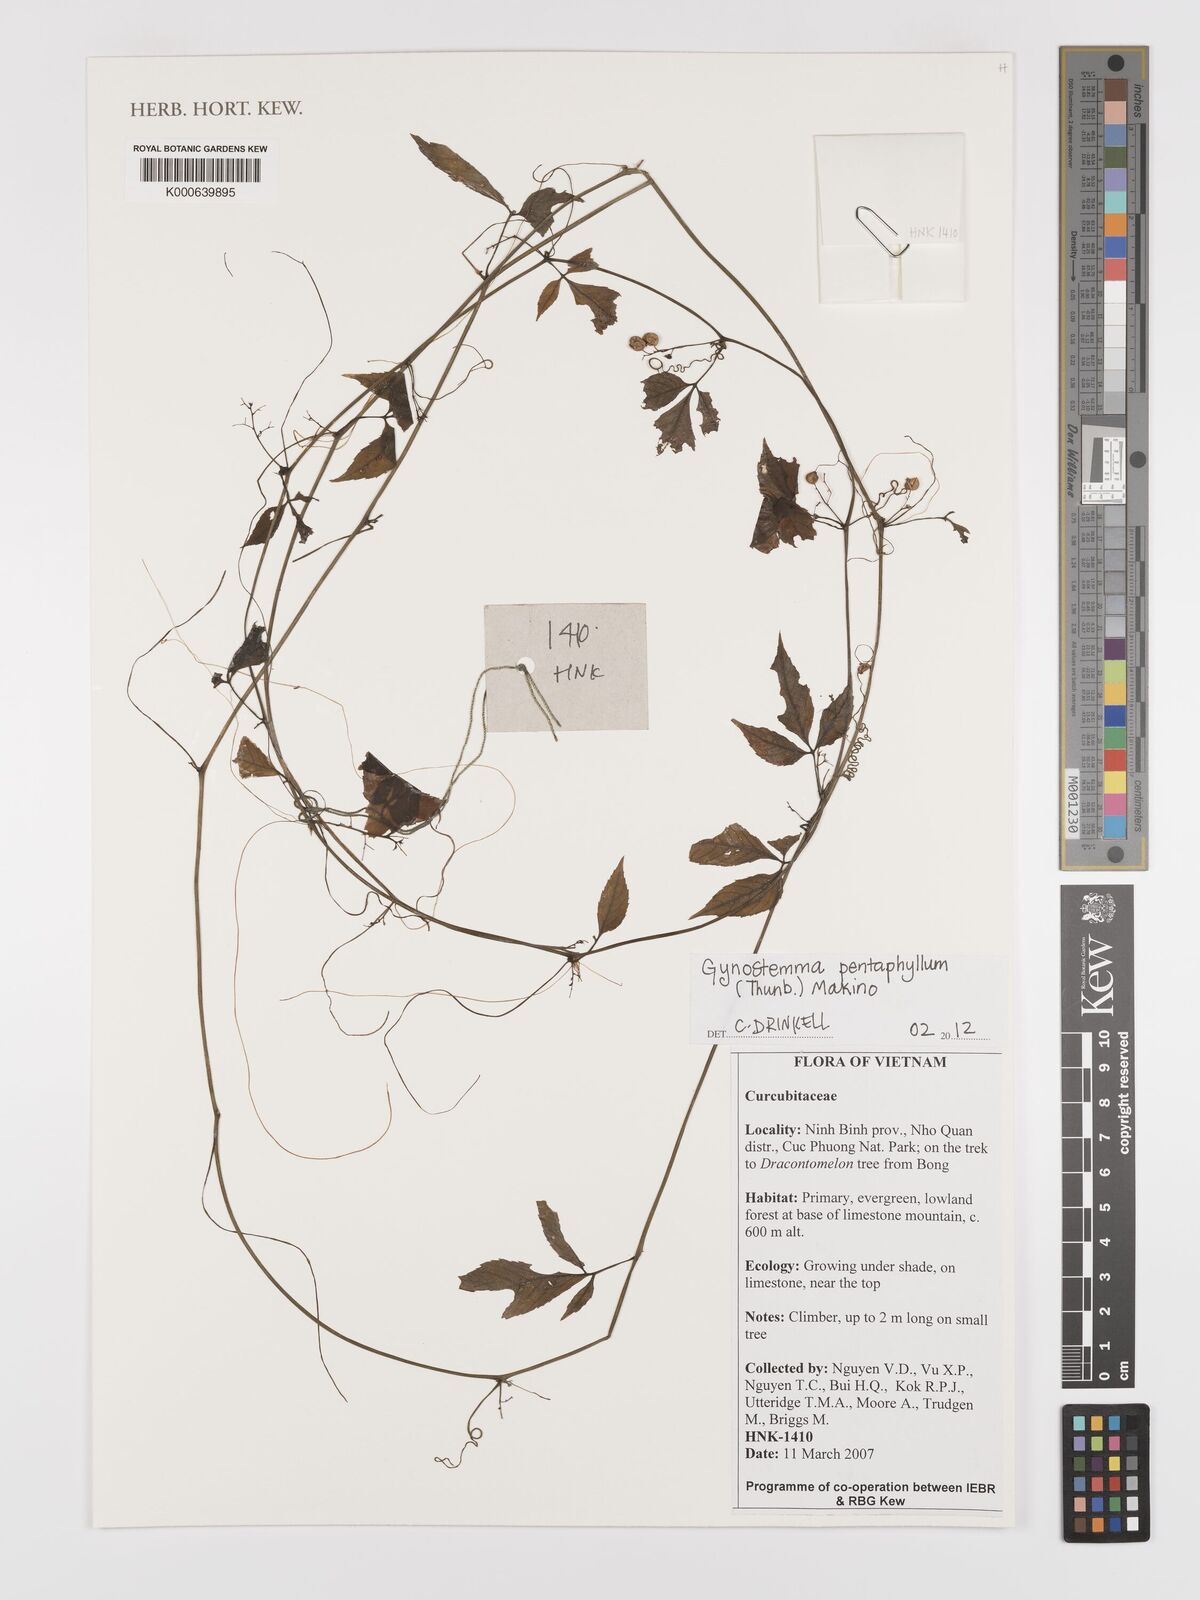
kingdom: Plantae
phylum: Tracheophyta
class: Magnoliopsida
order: Cucurbitales
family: Cucurbitaceae
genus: Gynostemma
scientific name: Gynostemma pentaphyllum
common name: Gynostemma
